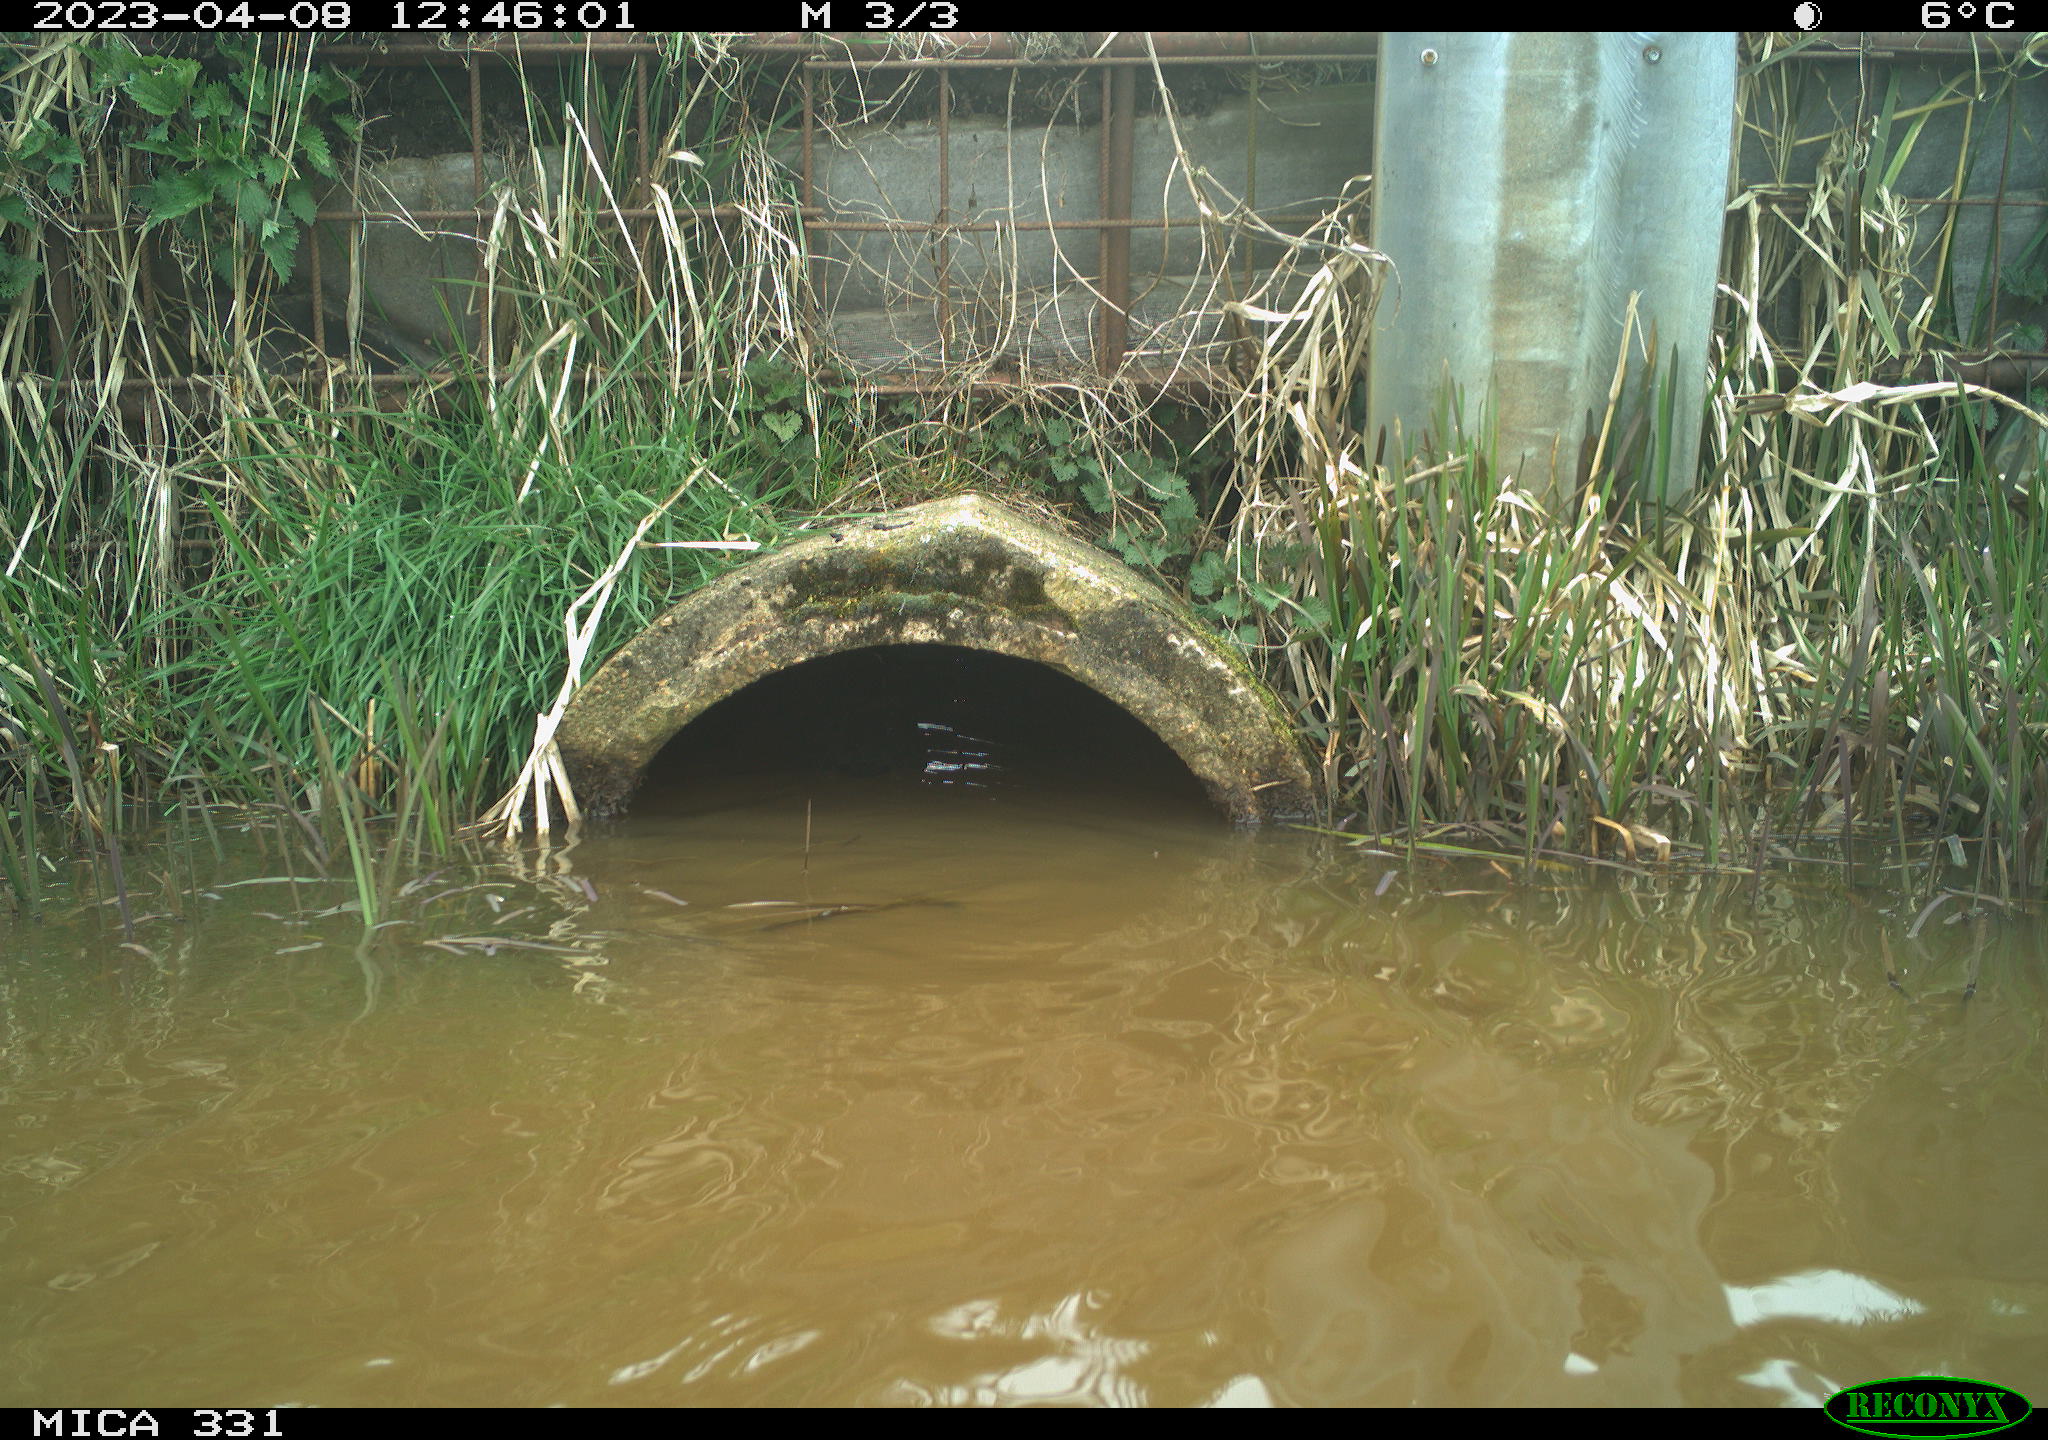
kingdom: Animalia
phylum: Chordata
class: Aves
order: Gruiformes
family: Rallidae
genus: Gallinula
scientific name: Gallinula chloropus
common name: Common moorhen
